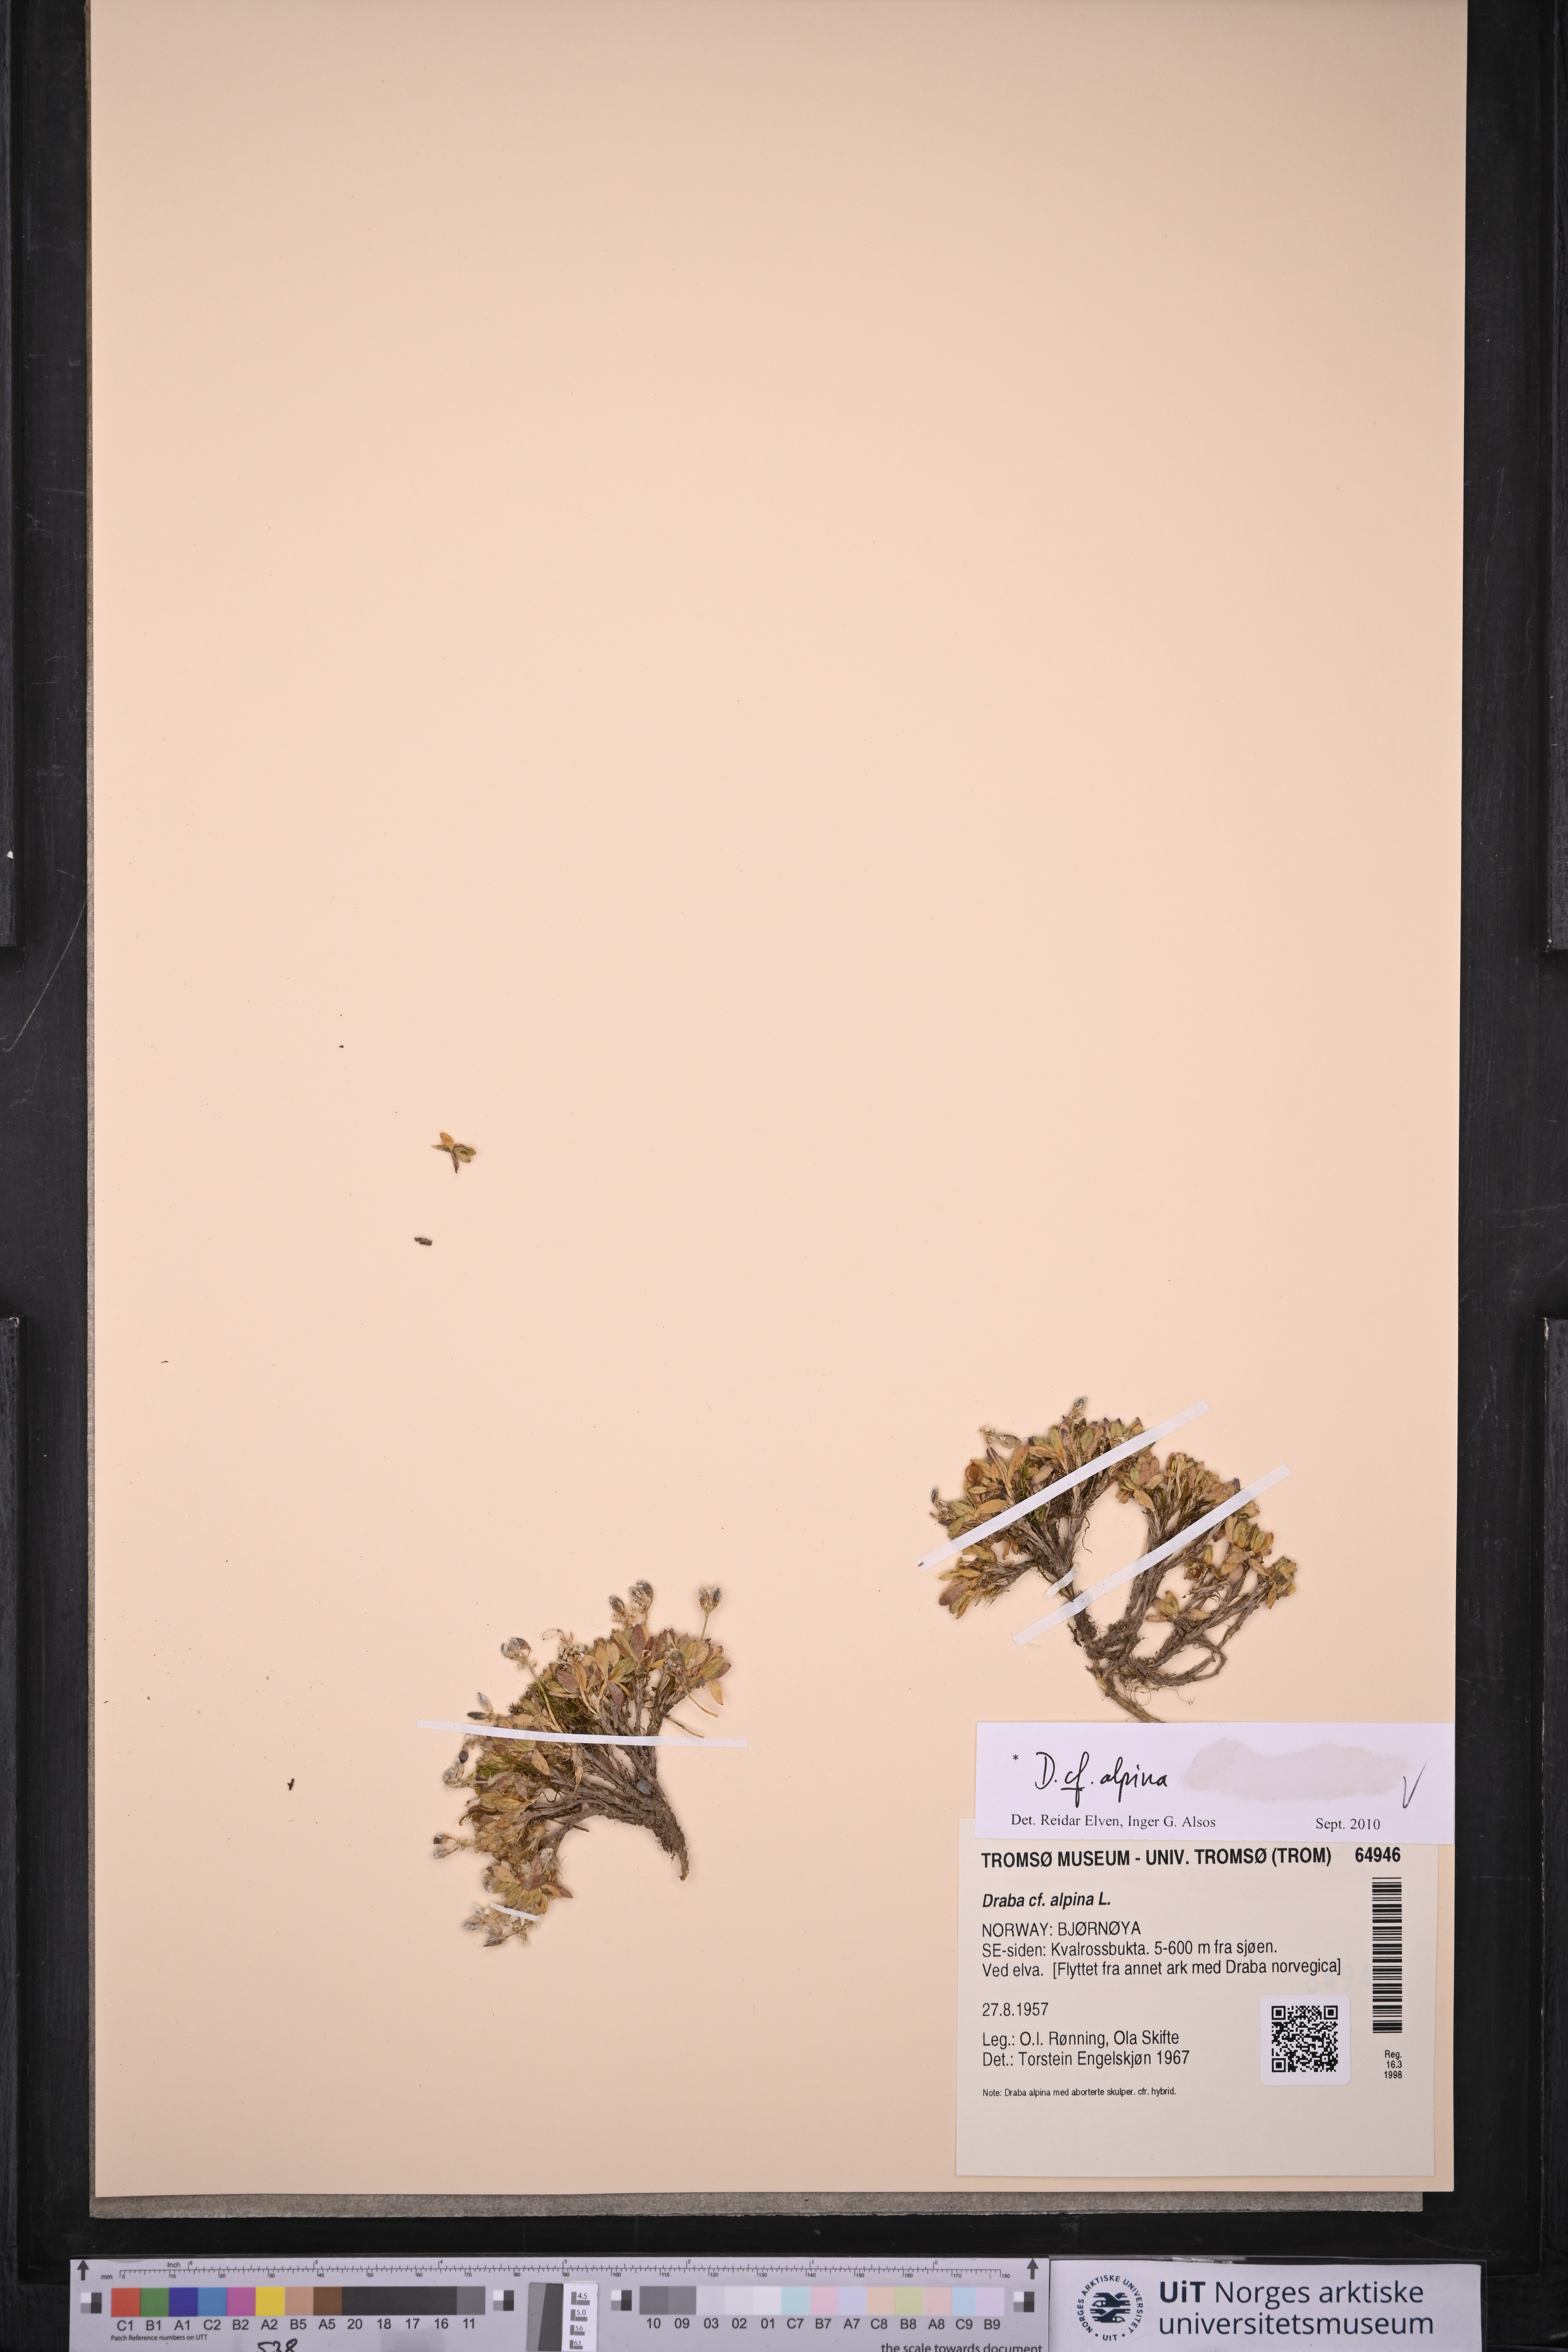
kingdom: Plantae
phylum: Tracheophyta
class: Magnoliopsida
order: Brassicales
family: Brassicaceae
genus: Draba
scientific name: Draba alpina
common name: Alpine draba
